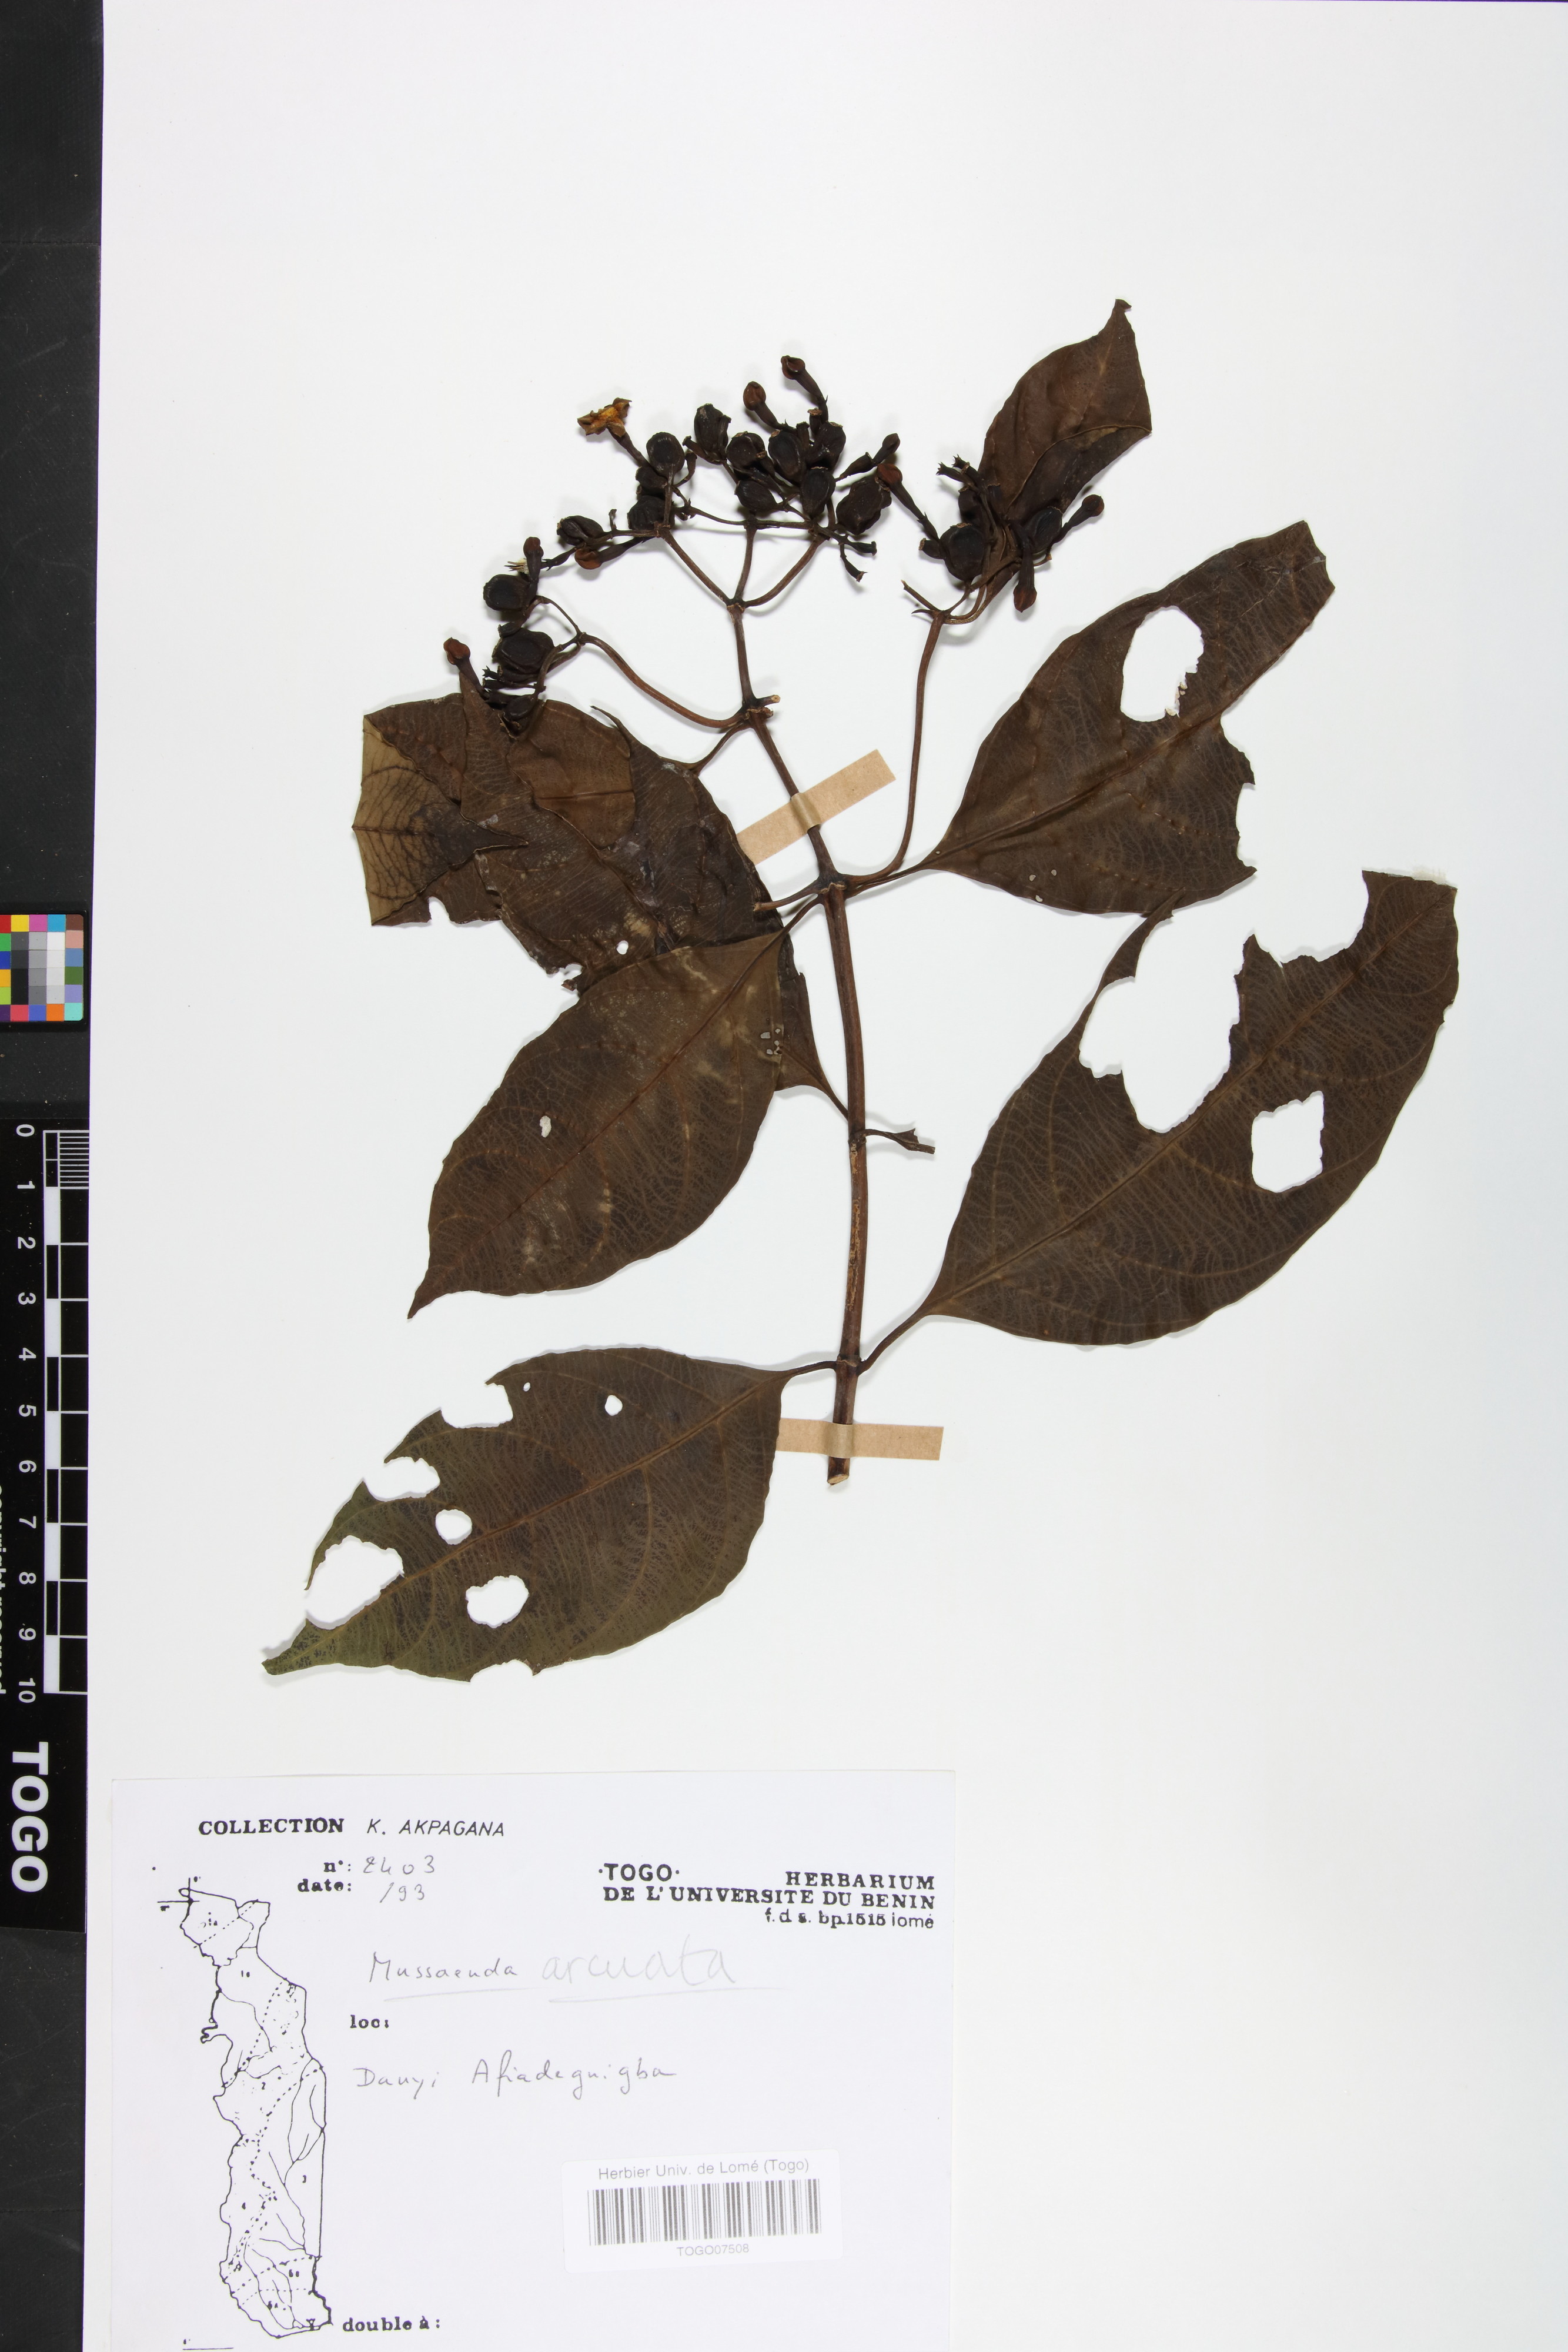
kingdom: Plantae
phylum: Tracheophyta
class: Magnoliopsida
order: Gentianales
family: Rubiaceae
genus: Mussaenda
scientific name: Mussaenda arcuata
